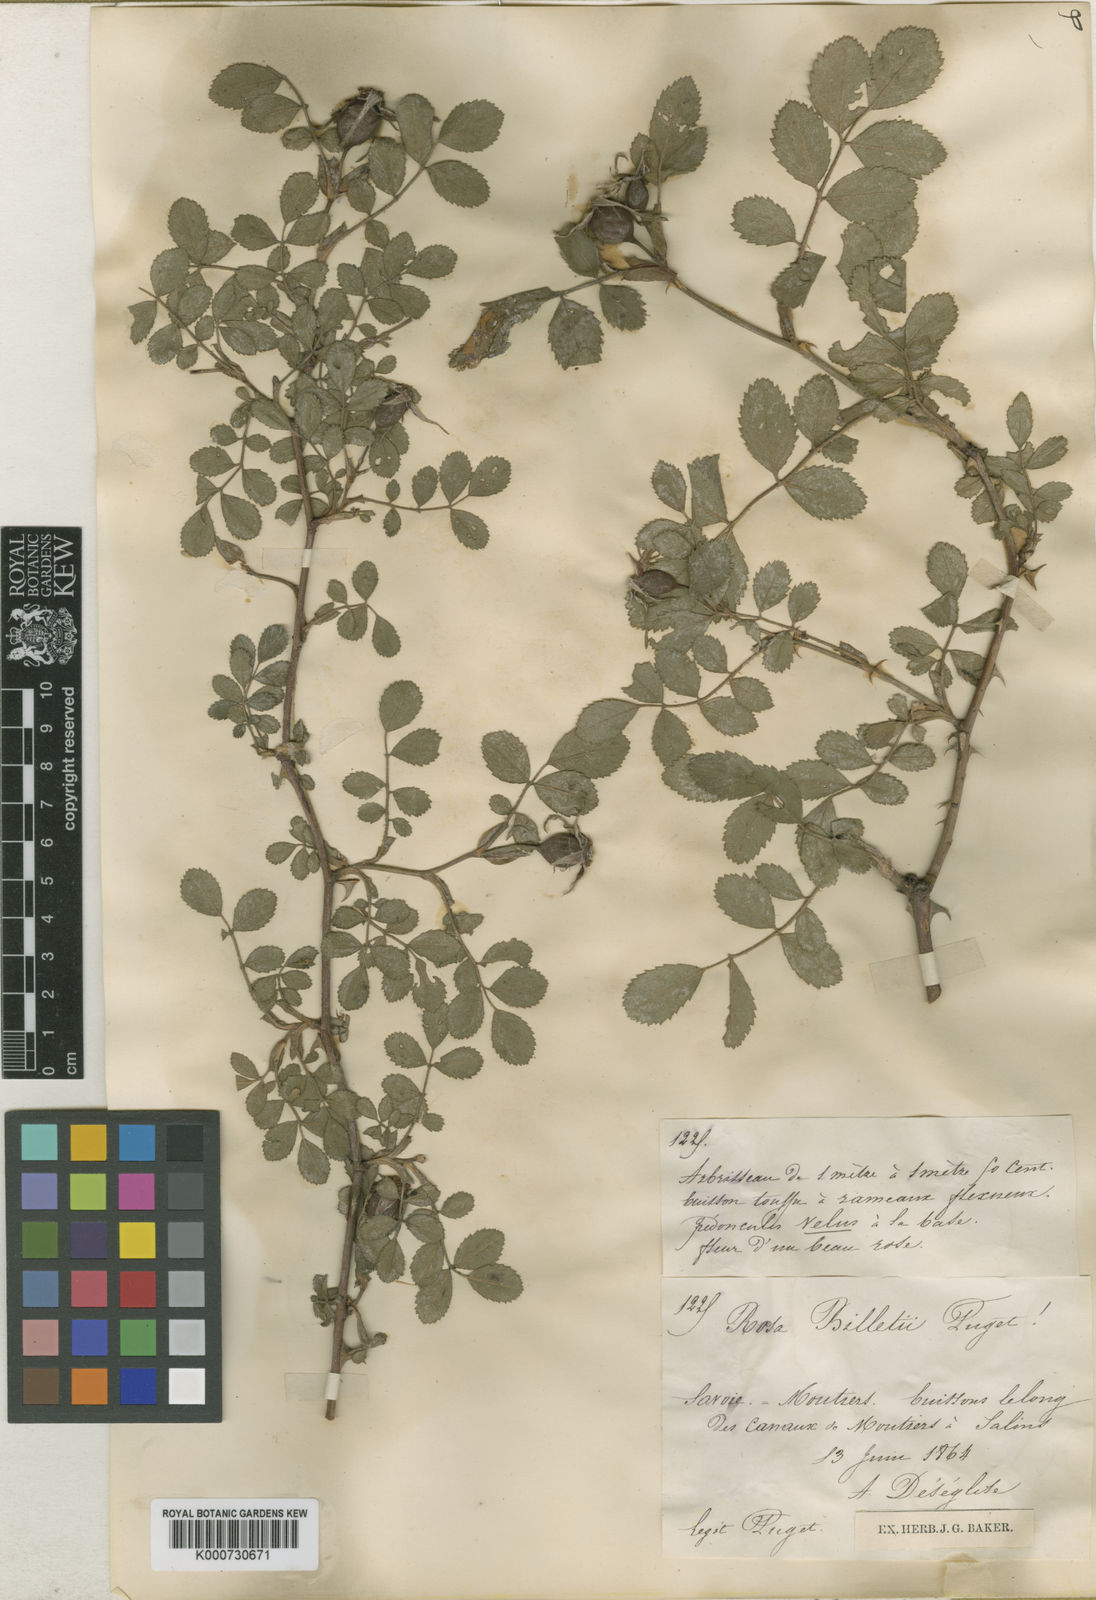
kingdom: Plantae
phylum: Tracheophyta
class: Magnoliopsida
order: Rosales
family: Rosaceae
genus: Rosa
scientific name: Rosa agrestis
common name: Fieldbriar
